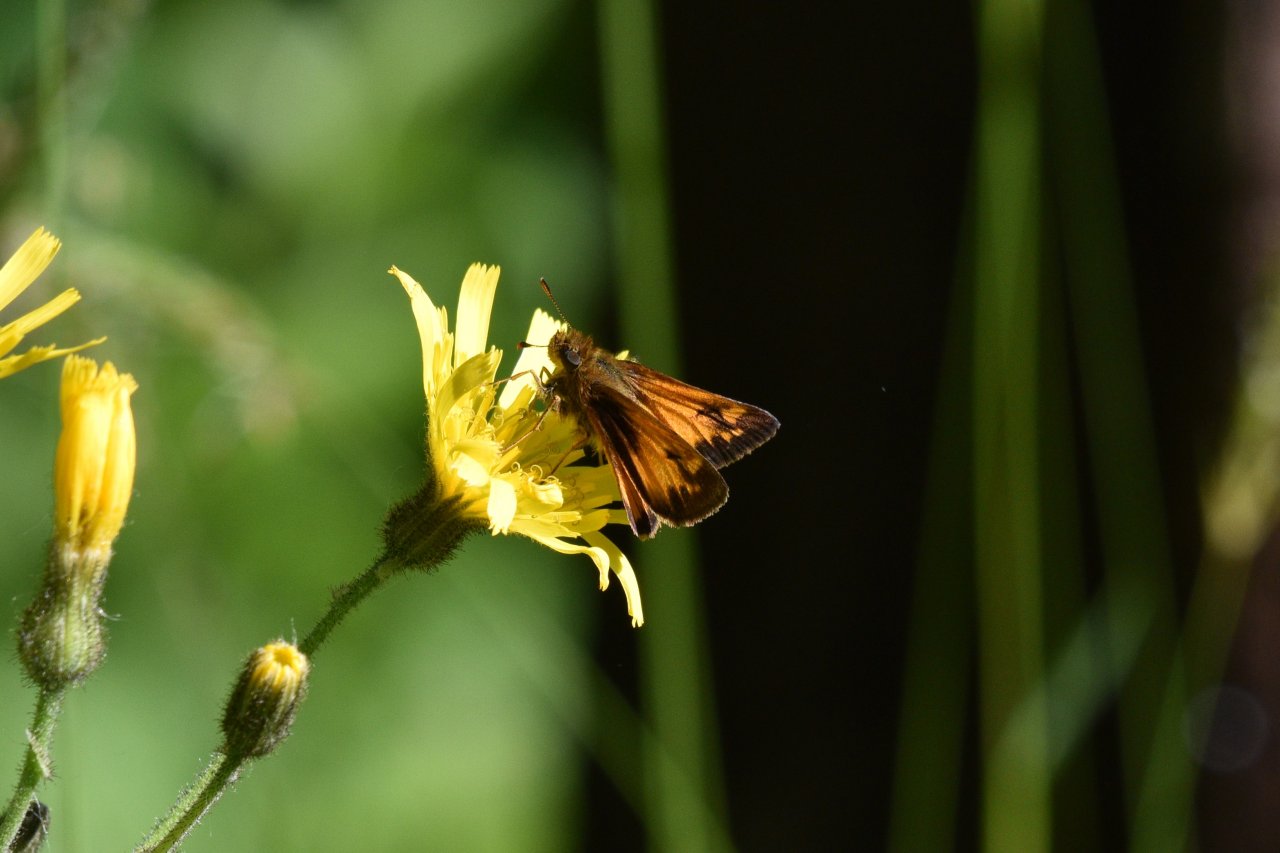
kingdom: Animalia
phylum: Arthropoda
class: Insecta
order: Lepidoptera
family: Hesperiidae
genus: Lon
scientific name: Lon hobomok
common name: Hobomok Skipper
